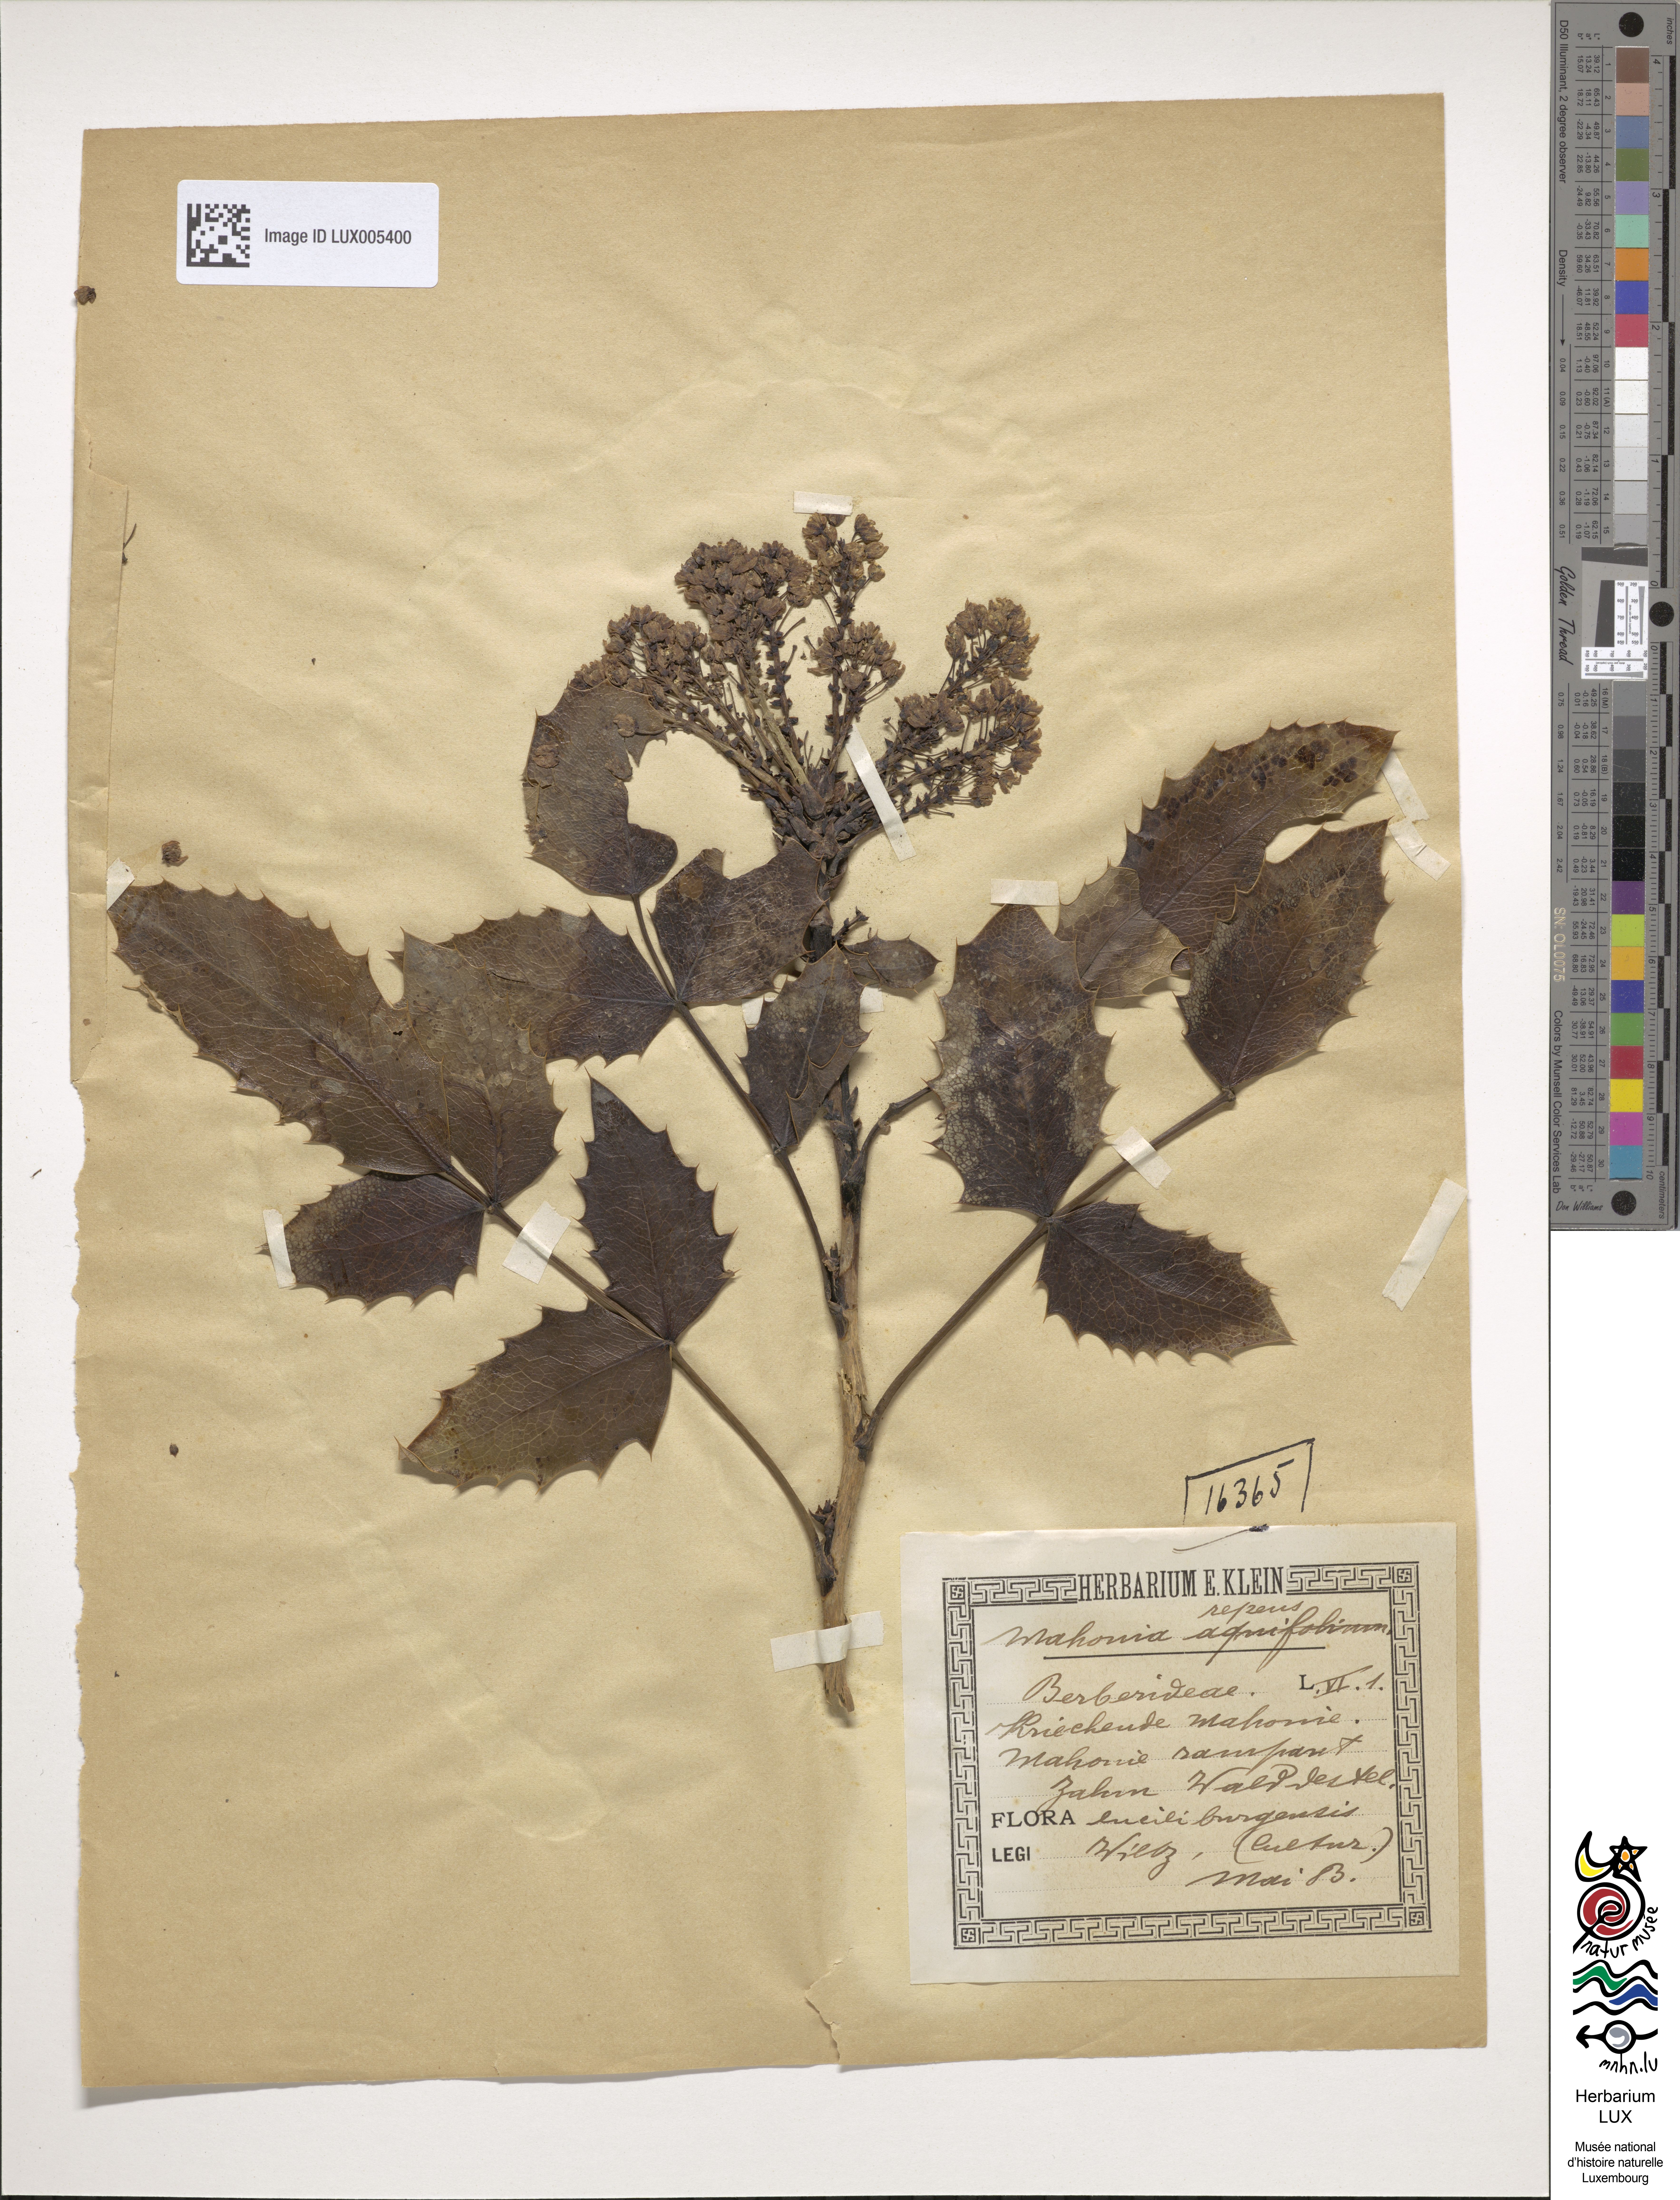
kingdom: Plantae
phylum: Tracheophyta
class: Magnoliopsida
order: Ranunculales
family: Berberidaceae
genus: Mahonia
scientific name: Mahonia repens
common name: Creeping oregon-grape
